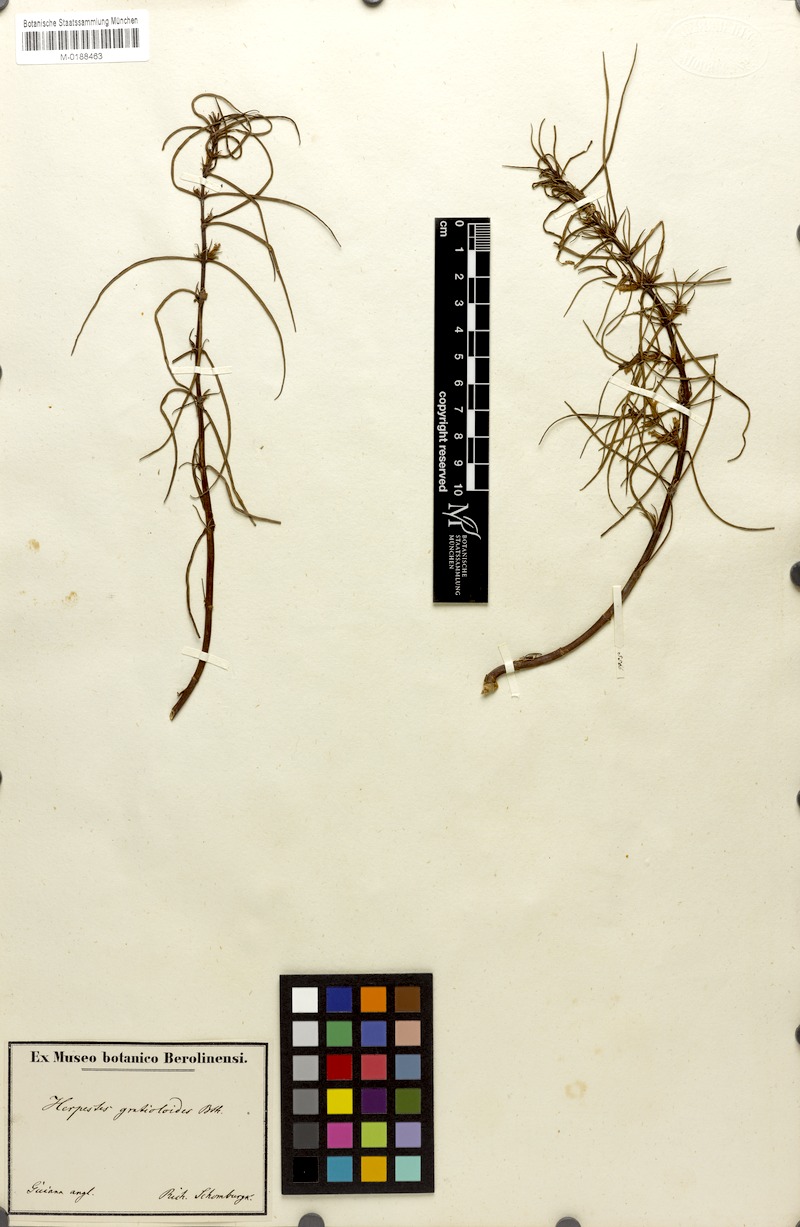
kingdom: Plantae
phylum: Tracheophyta
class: Magnoliopsida
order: Lamiales
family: Plantaginaceae
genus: Bacopa
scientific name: Bacopa gratioloides
